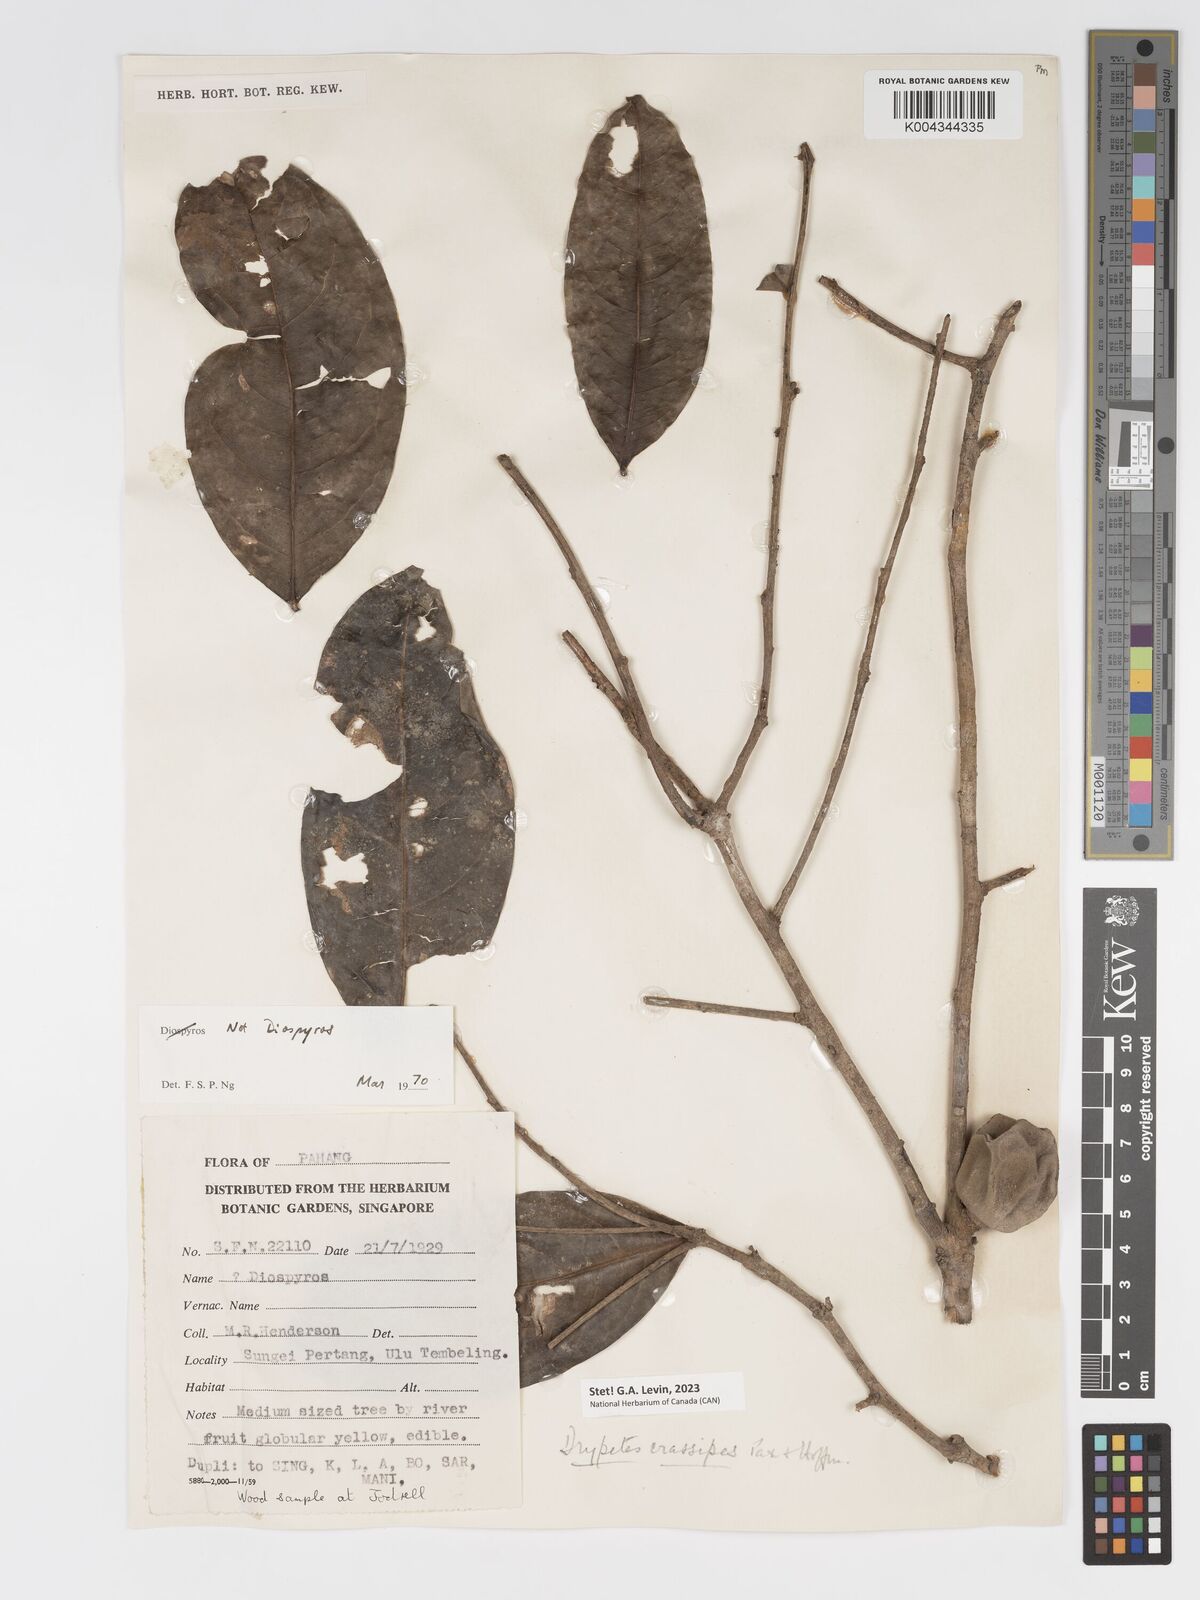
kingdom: Plantae
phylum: Tracheophyta
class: Magnoliopsida
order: Malpighiales
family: Putranjivaceae
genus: Drypetes
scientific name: Drypetes crassipes
